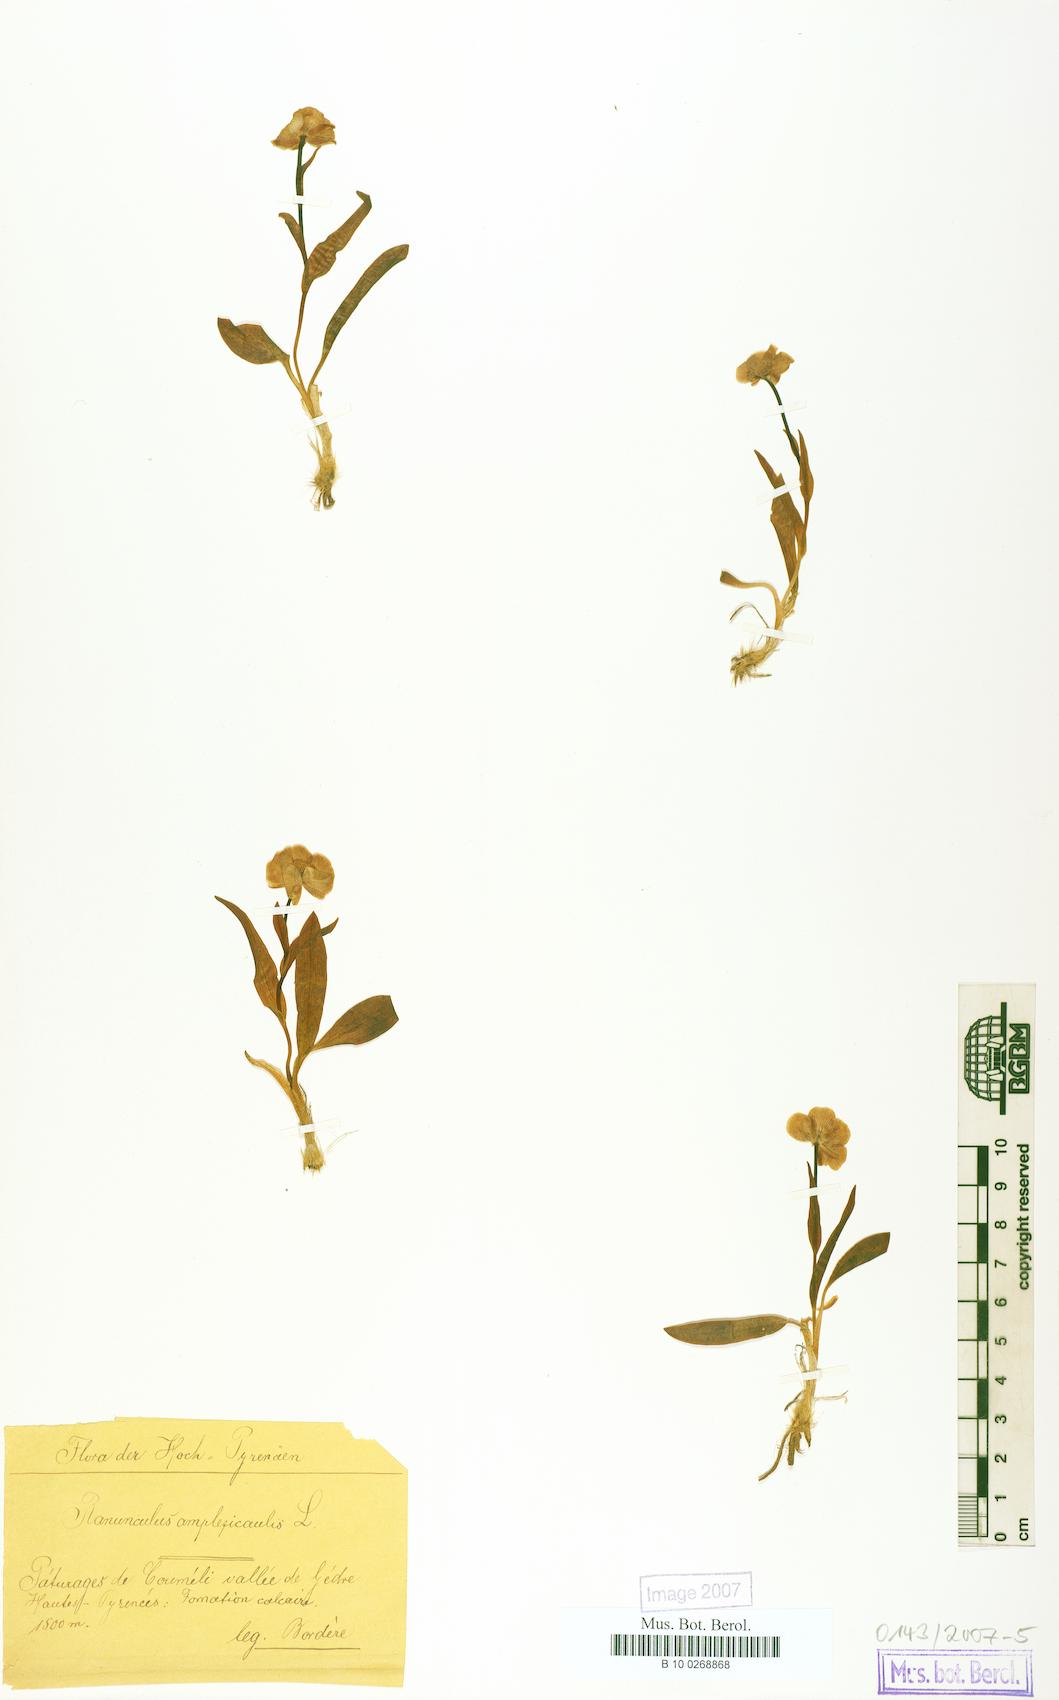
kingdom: Plantae
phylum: Tracheophyta
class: Magnoliopsida
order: Ranunculales
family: Ranunculaceae
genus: Ranunculus
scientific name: Ranunculus amplexicaulis
